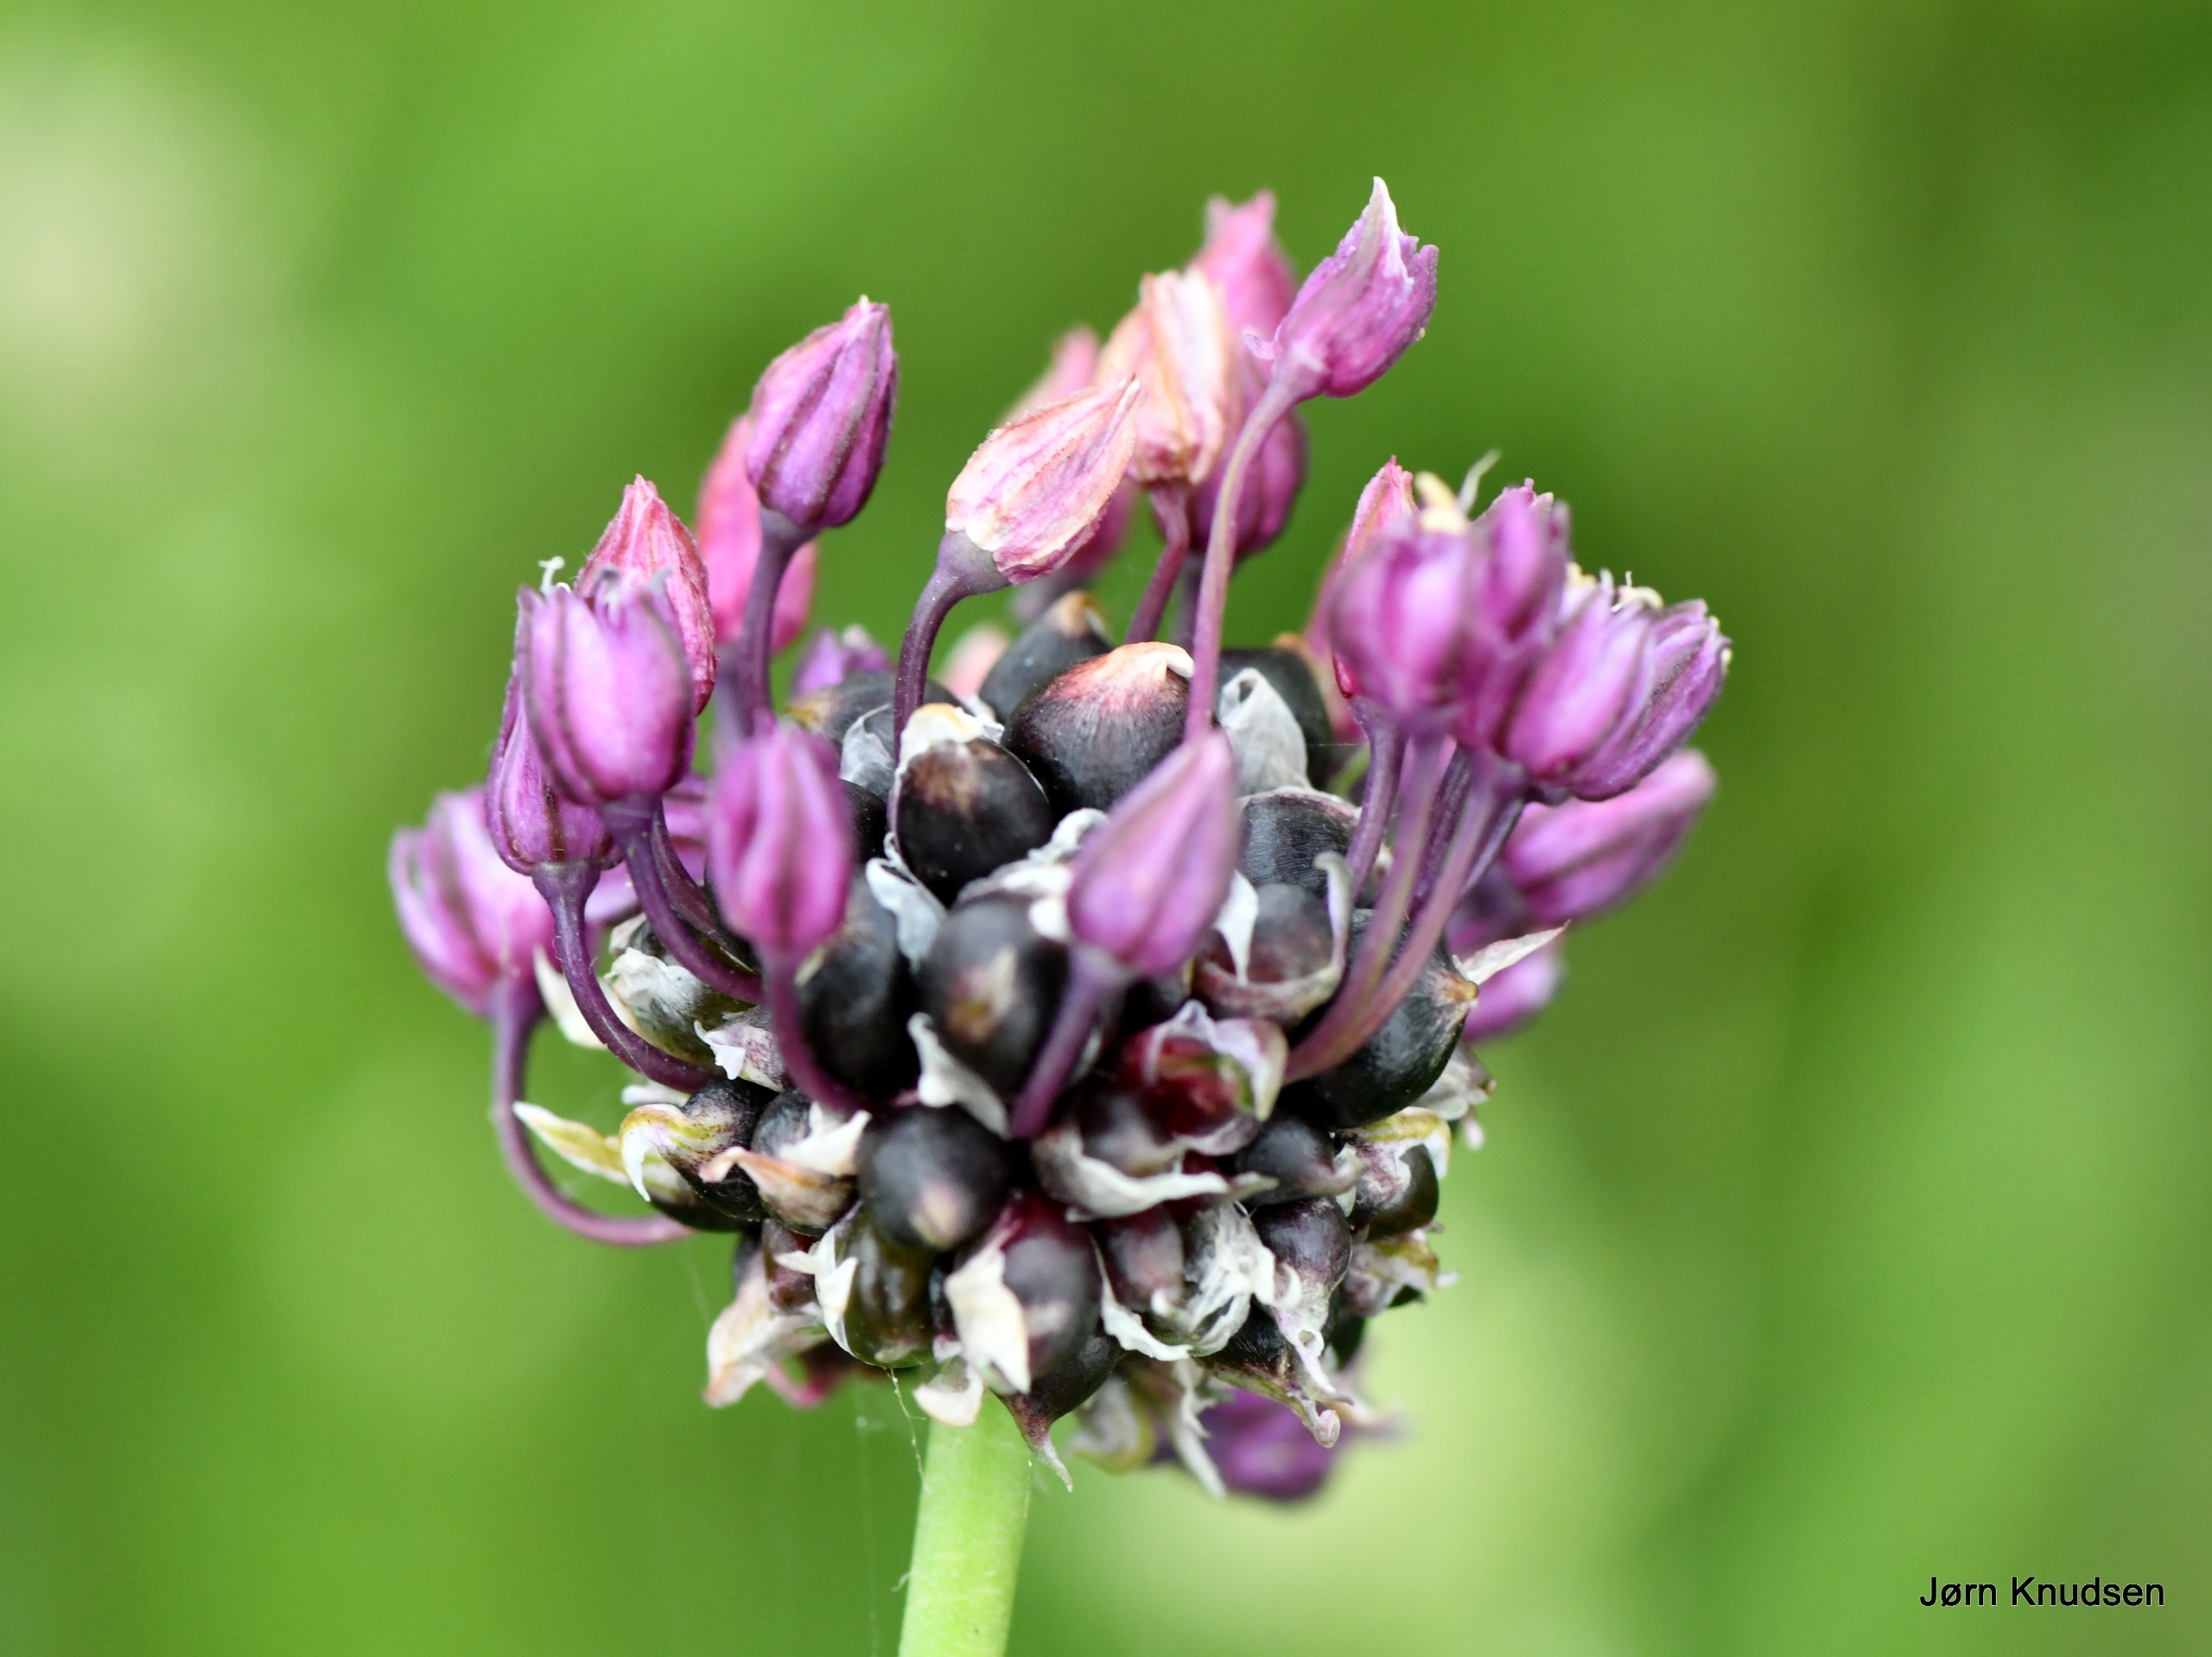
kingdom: Plantae
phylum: Tracheophyta
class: Liliopsida
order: Asparagales
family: Amaryllidaceae
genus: Allium
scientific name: Allium scorodoprasum
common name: Skov-løg
